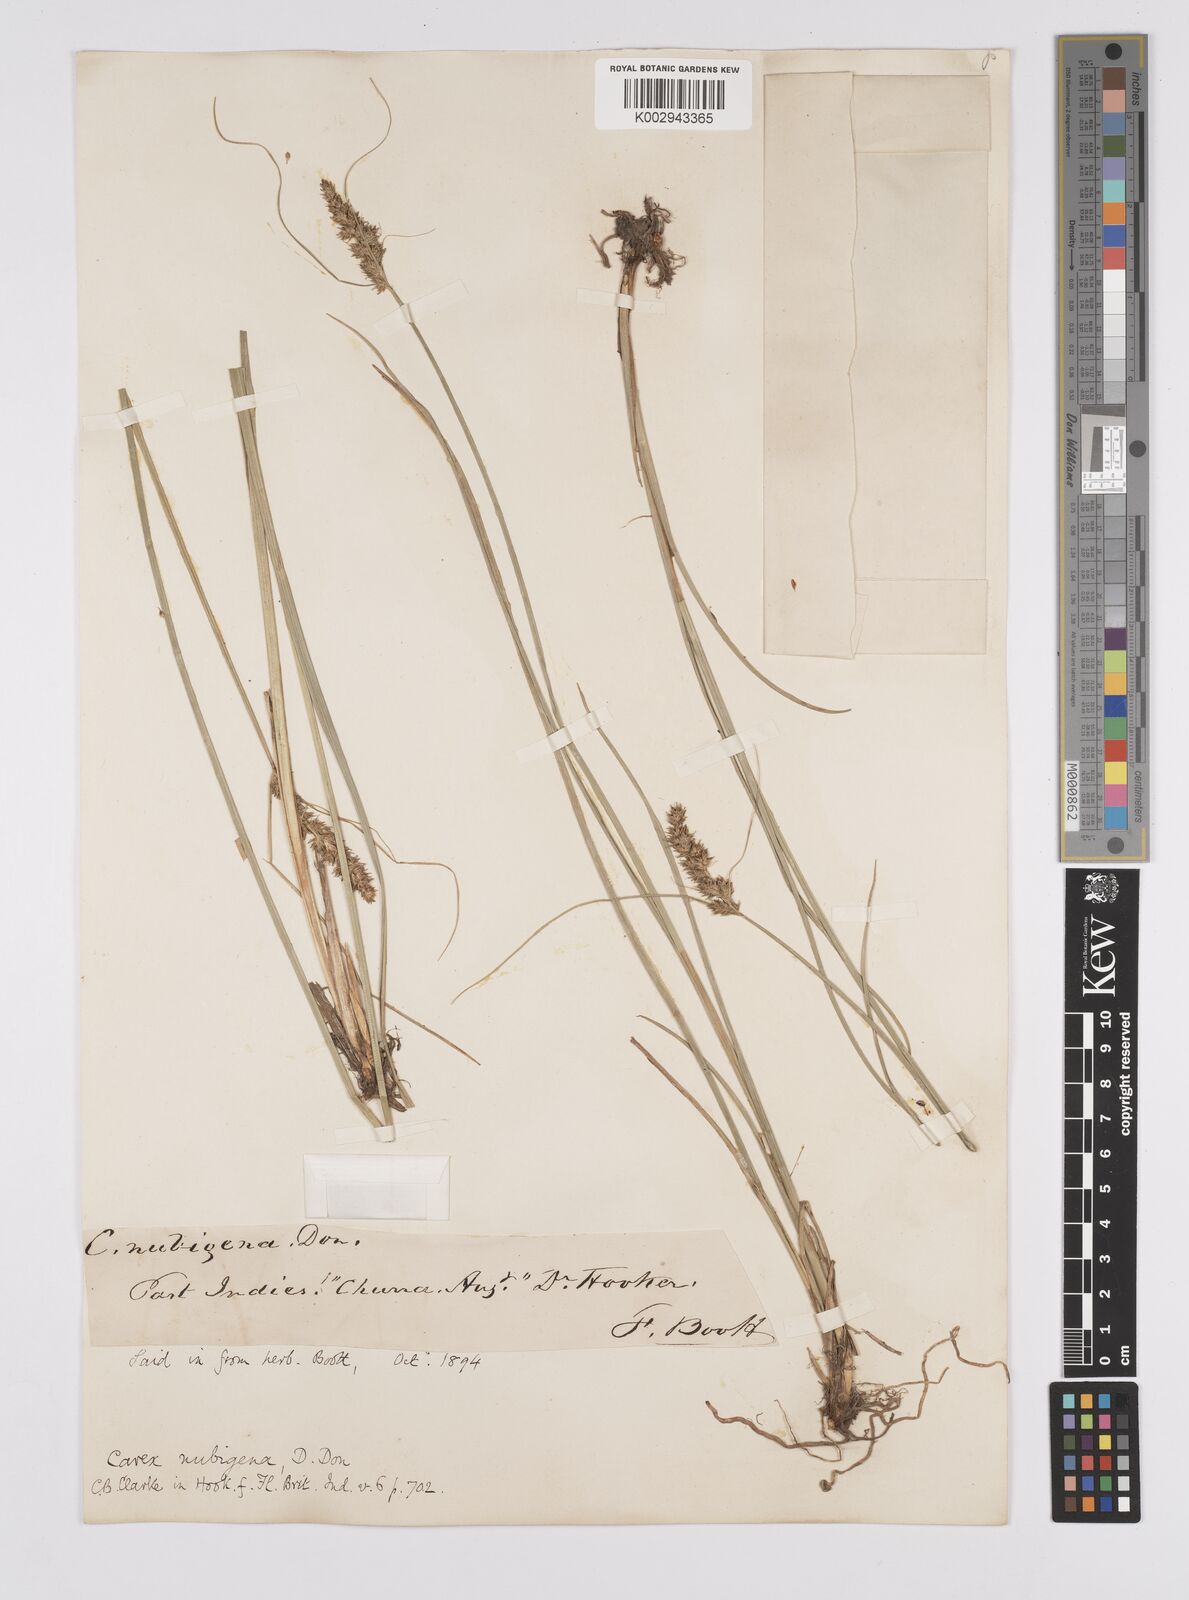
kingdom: Plantae
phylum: Tracheophyta
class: Liliopsida
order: Poales
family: Cyperaceae
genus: Carex
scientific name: Carex nubigena
